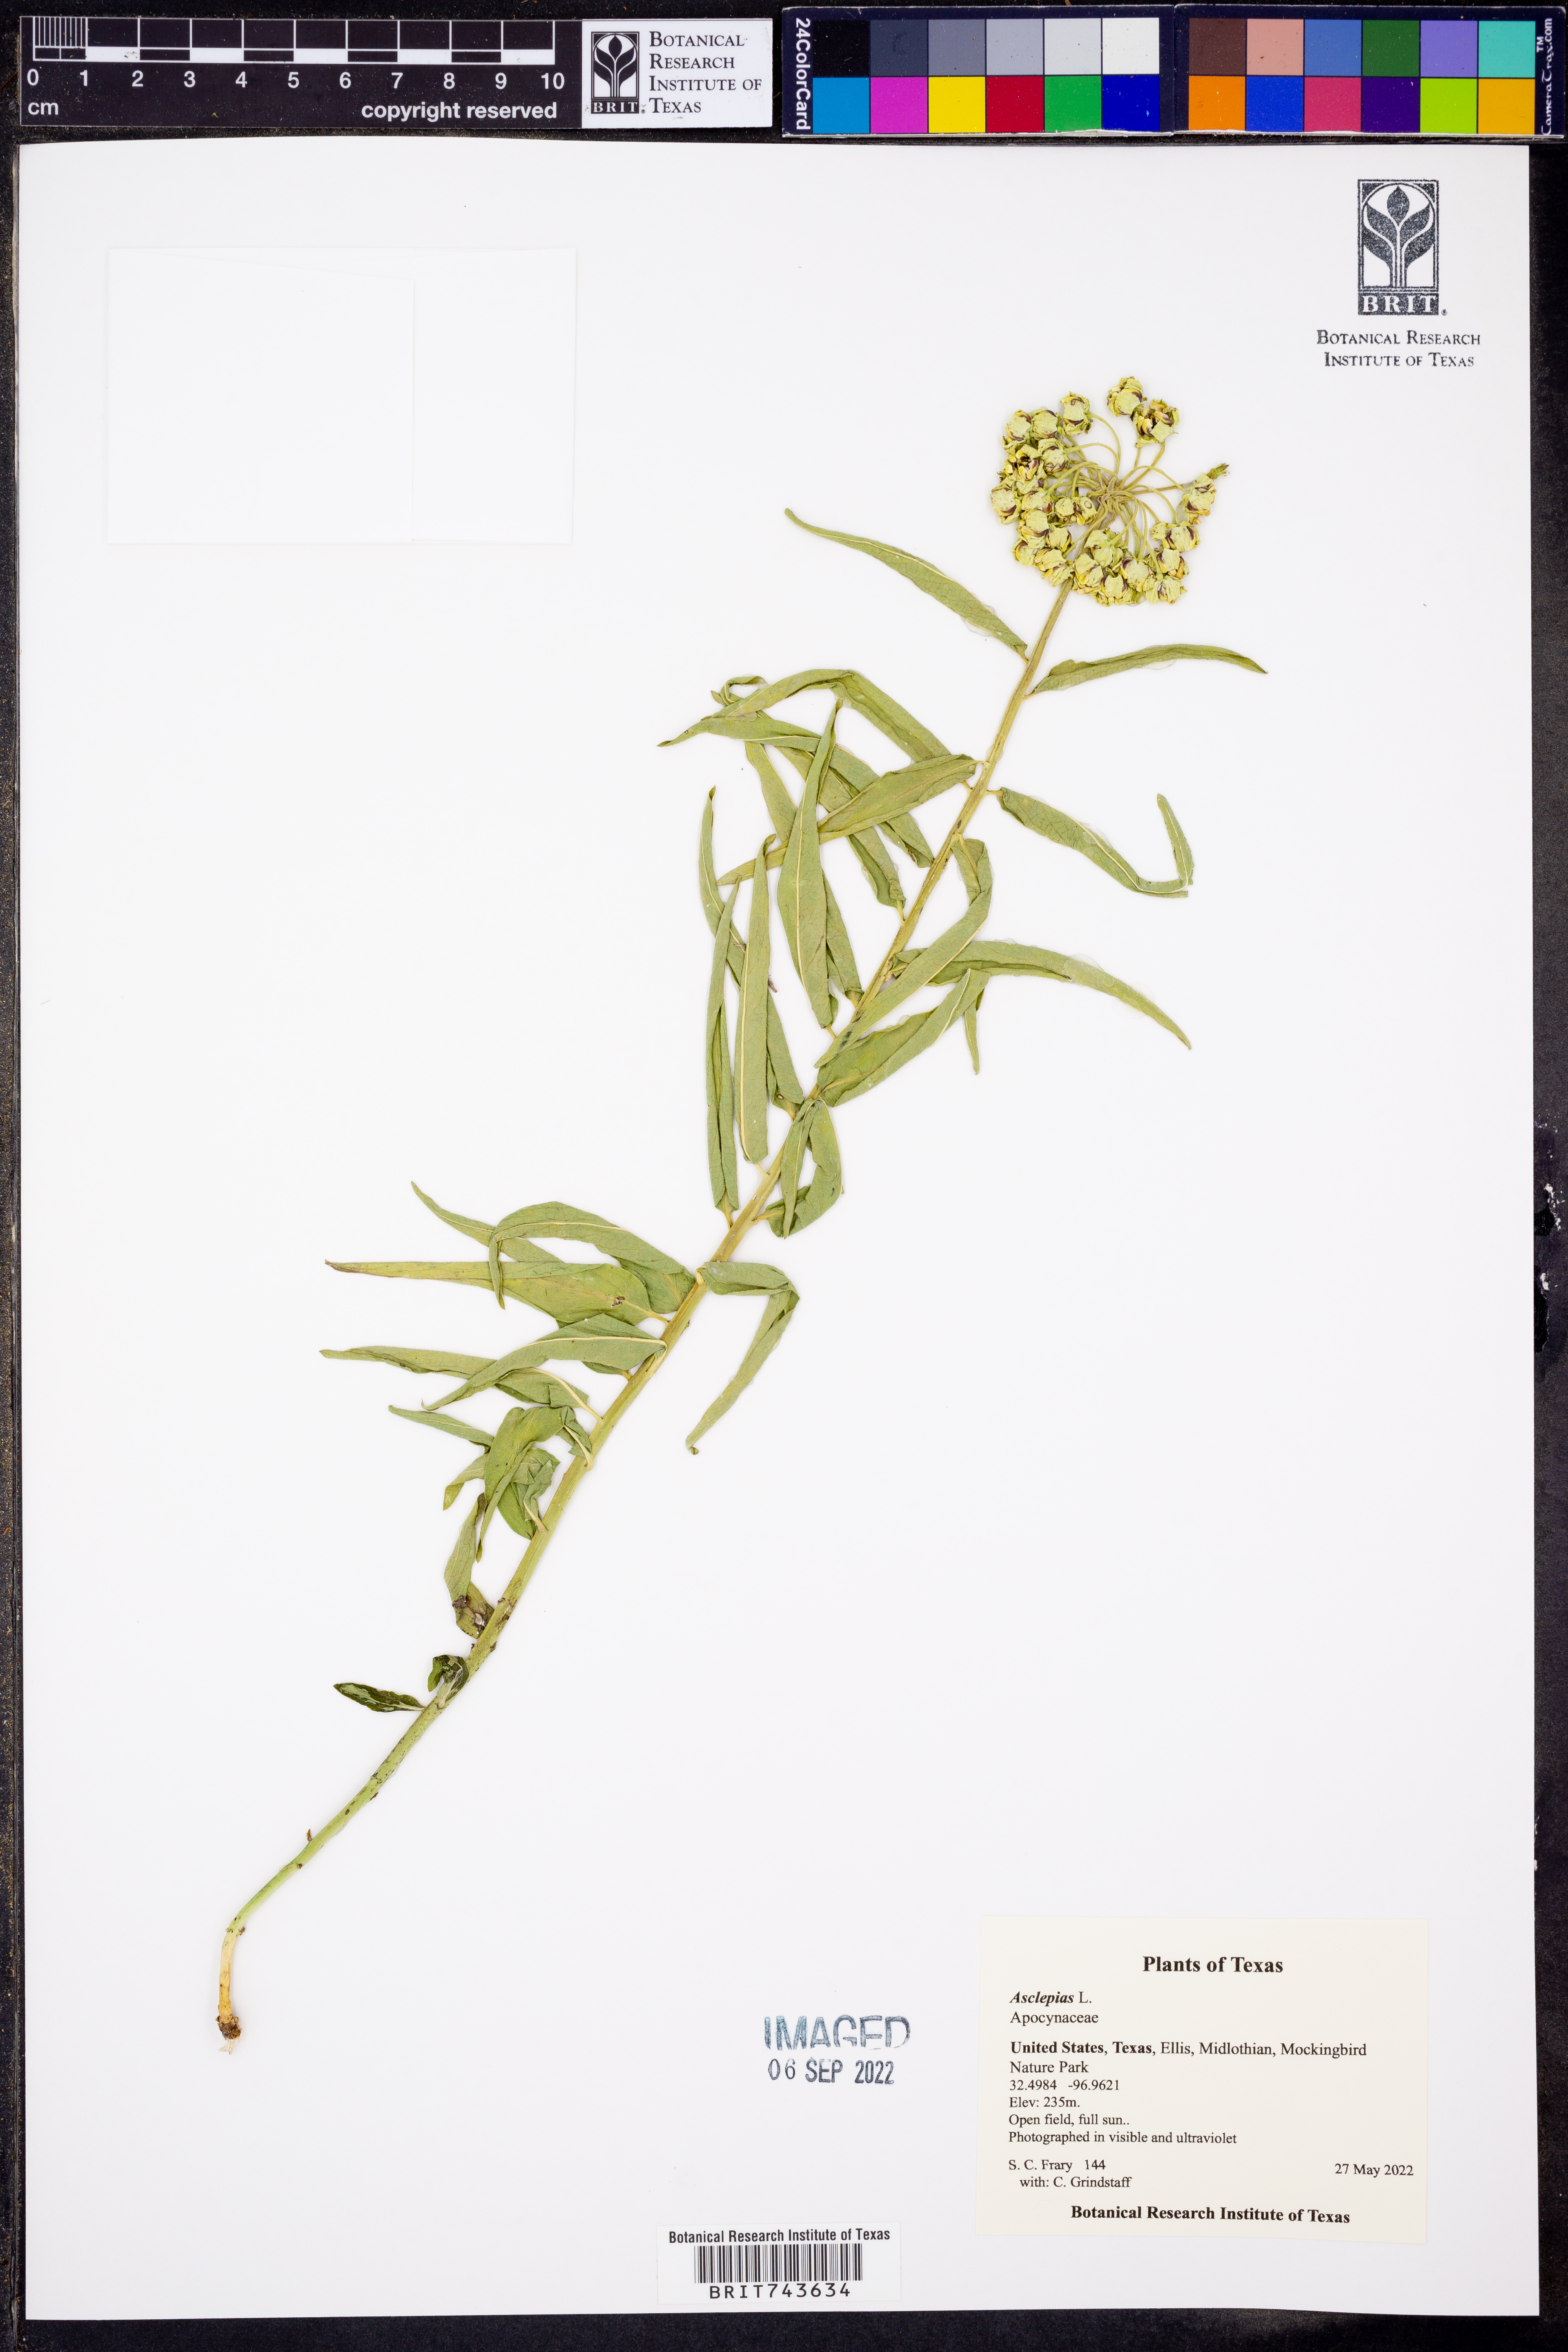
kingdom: Plantae
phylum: Tracheophyta
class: Magnoliopsida
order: Gentianales
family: Apocynaceae
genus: Asclepias
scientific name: Asclepias
